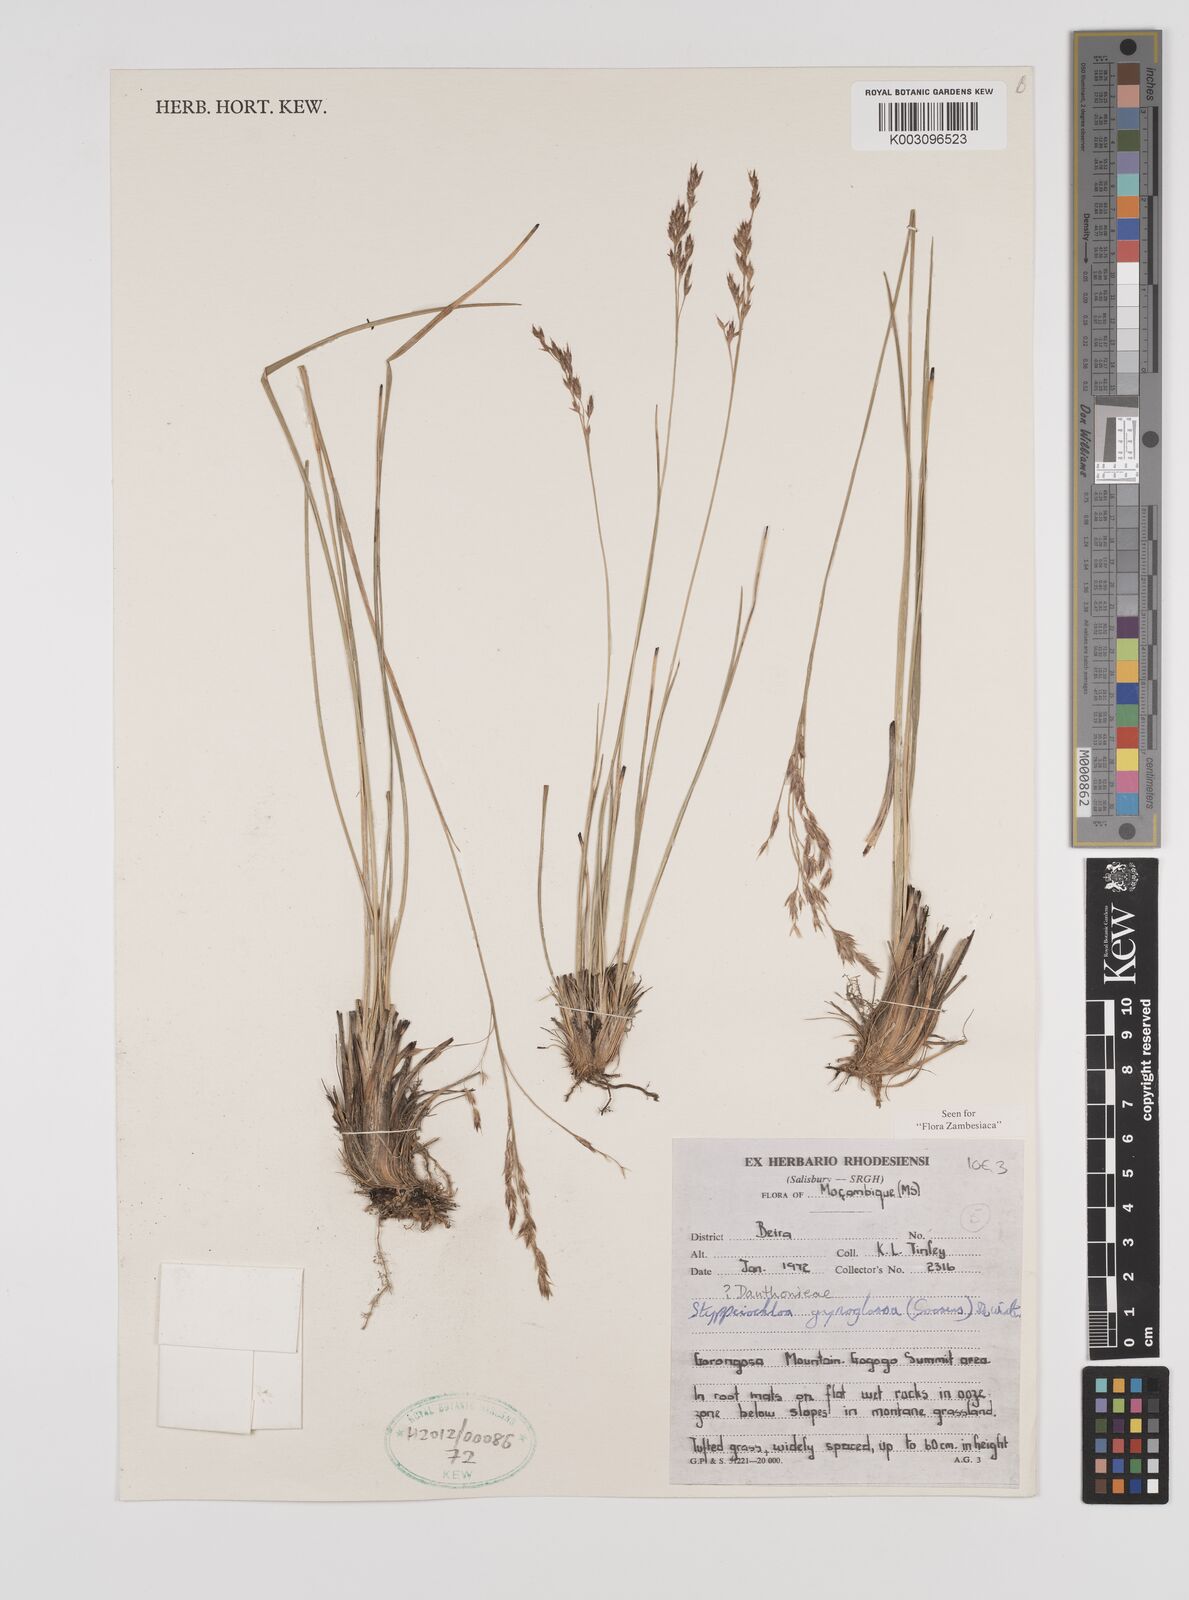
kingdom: Plantae
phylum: Tracheophyta
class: Liliopsida
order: Poales
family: Poaceae
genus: Styppeiochloa
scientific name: Styppeiochloa gynoglossa
